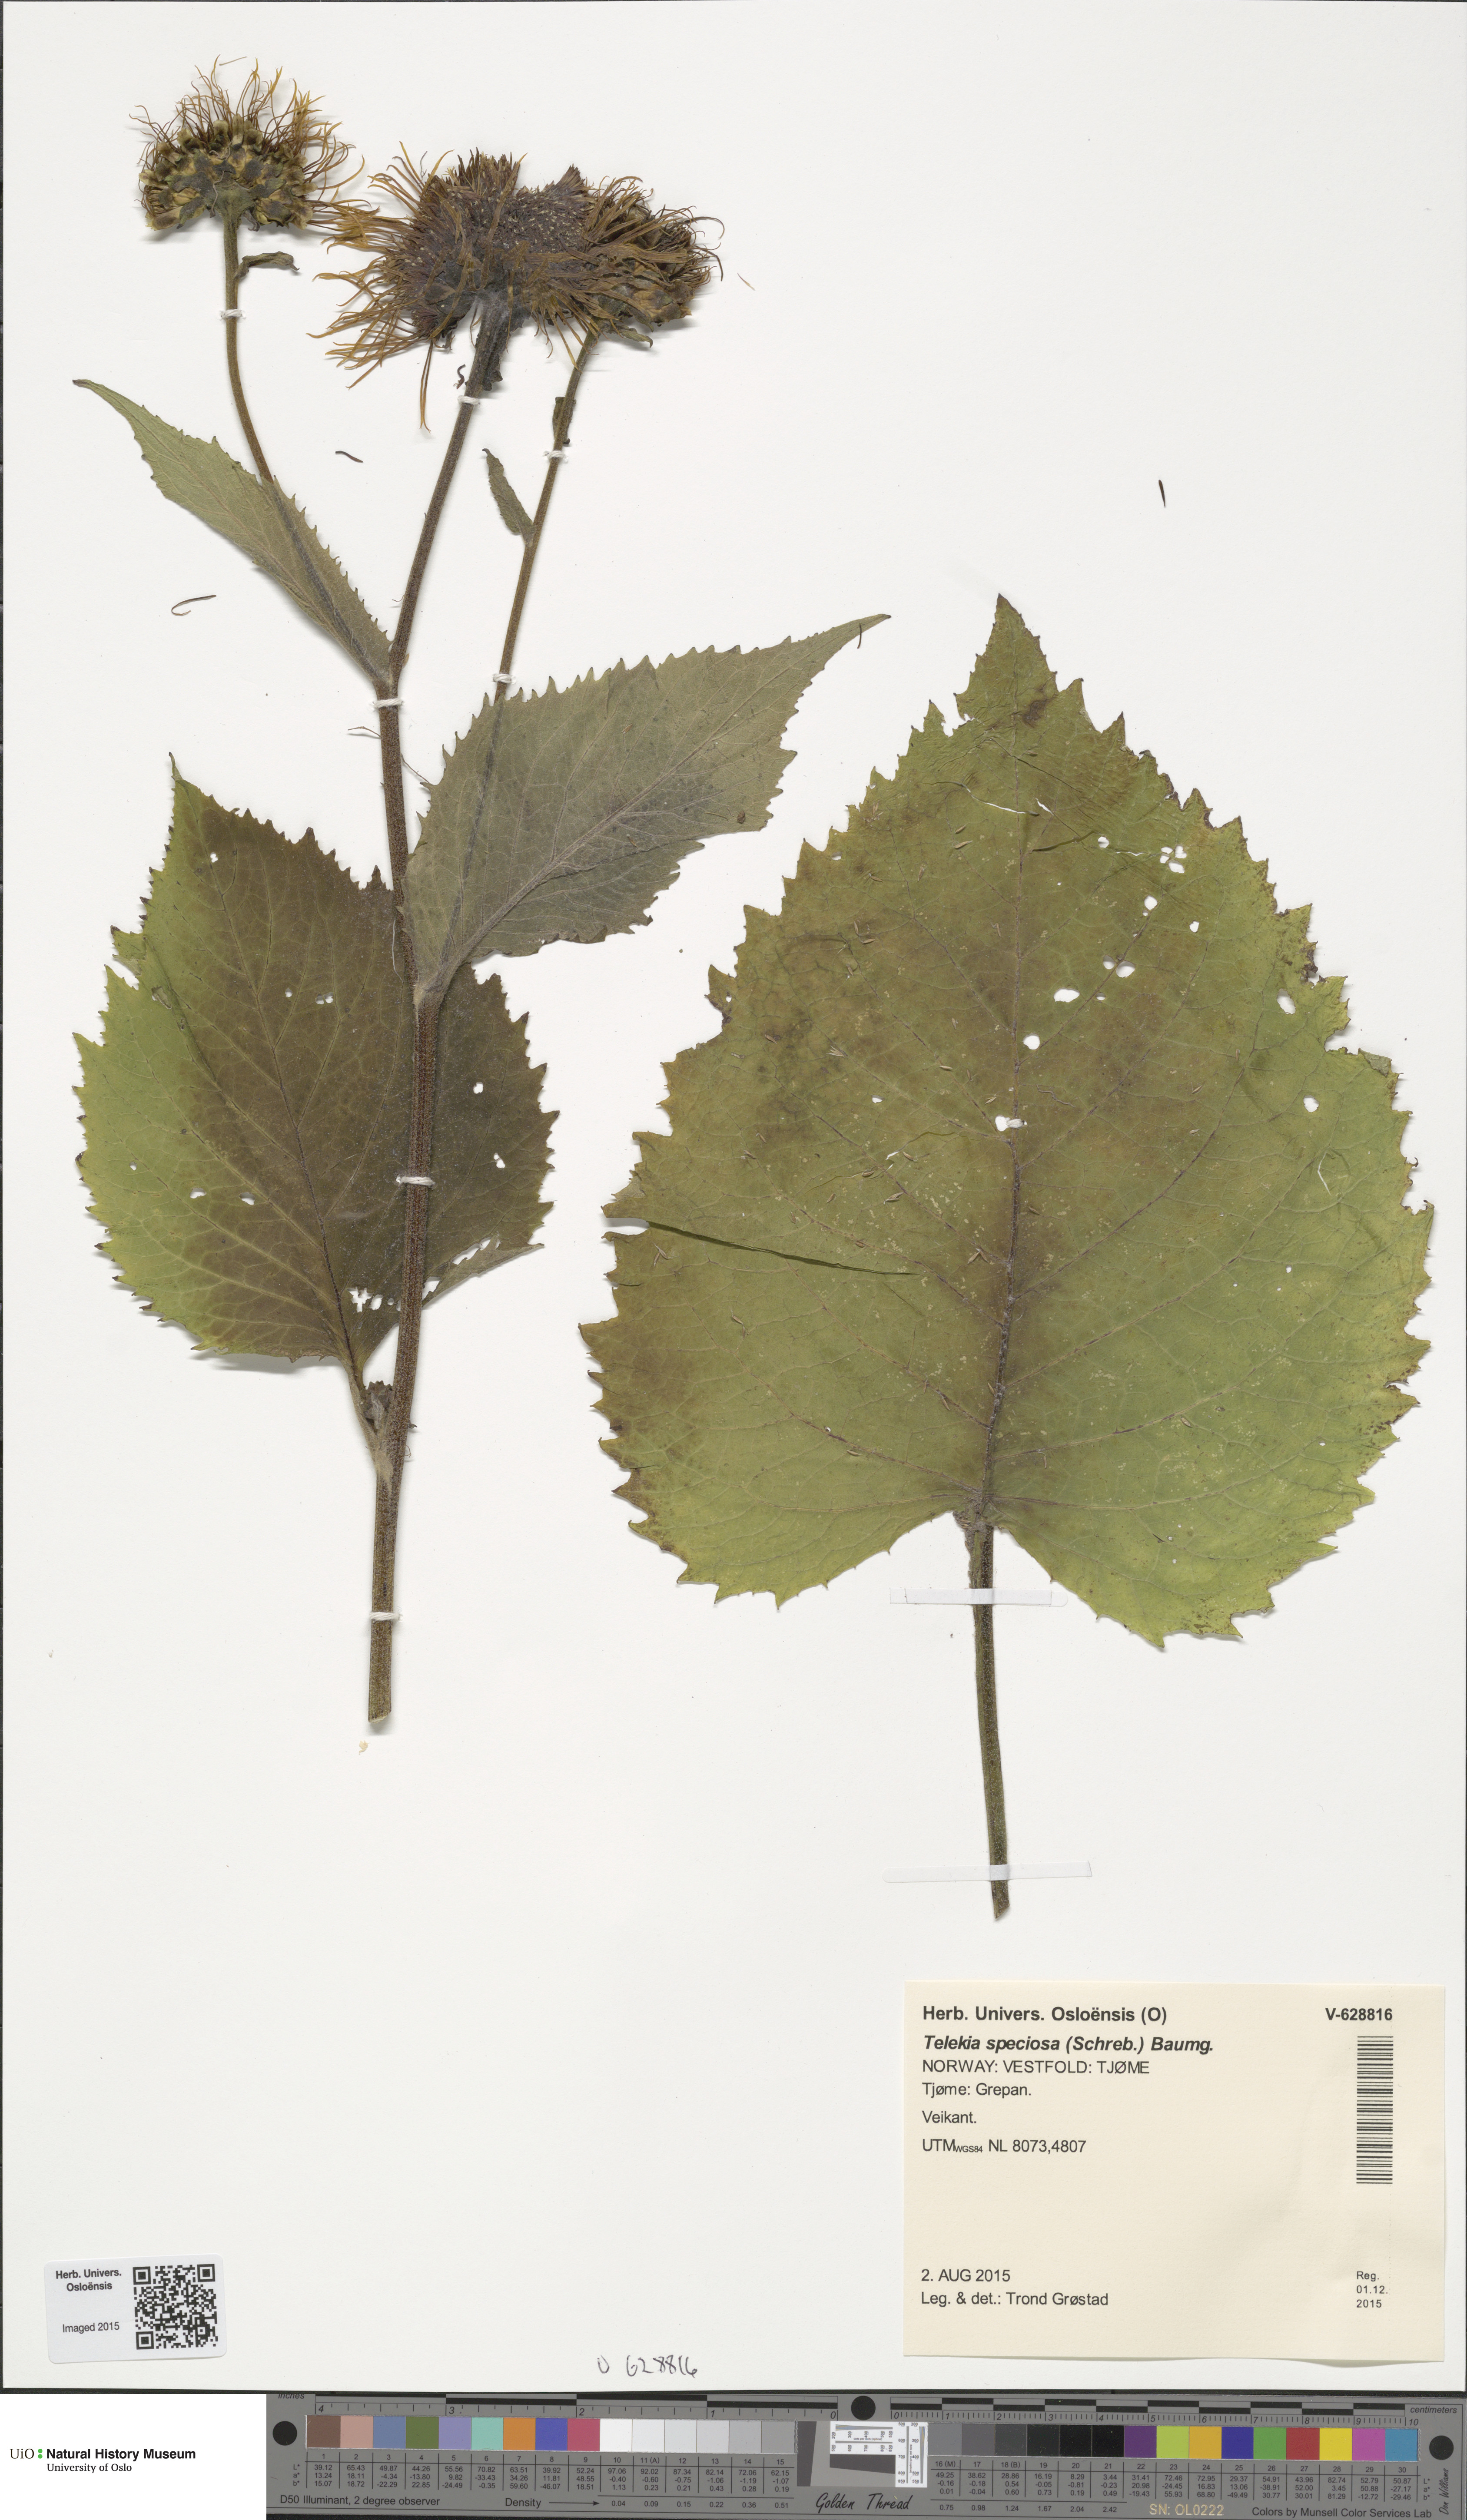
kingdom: Plantae
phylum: Tracheophyta
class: Magnoliopsida
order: Asterales
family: Asteraceae
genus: Telekia
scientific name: Telekia speciosa
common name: Yellow oxeye
